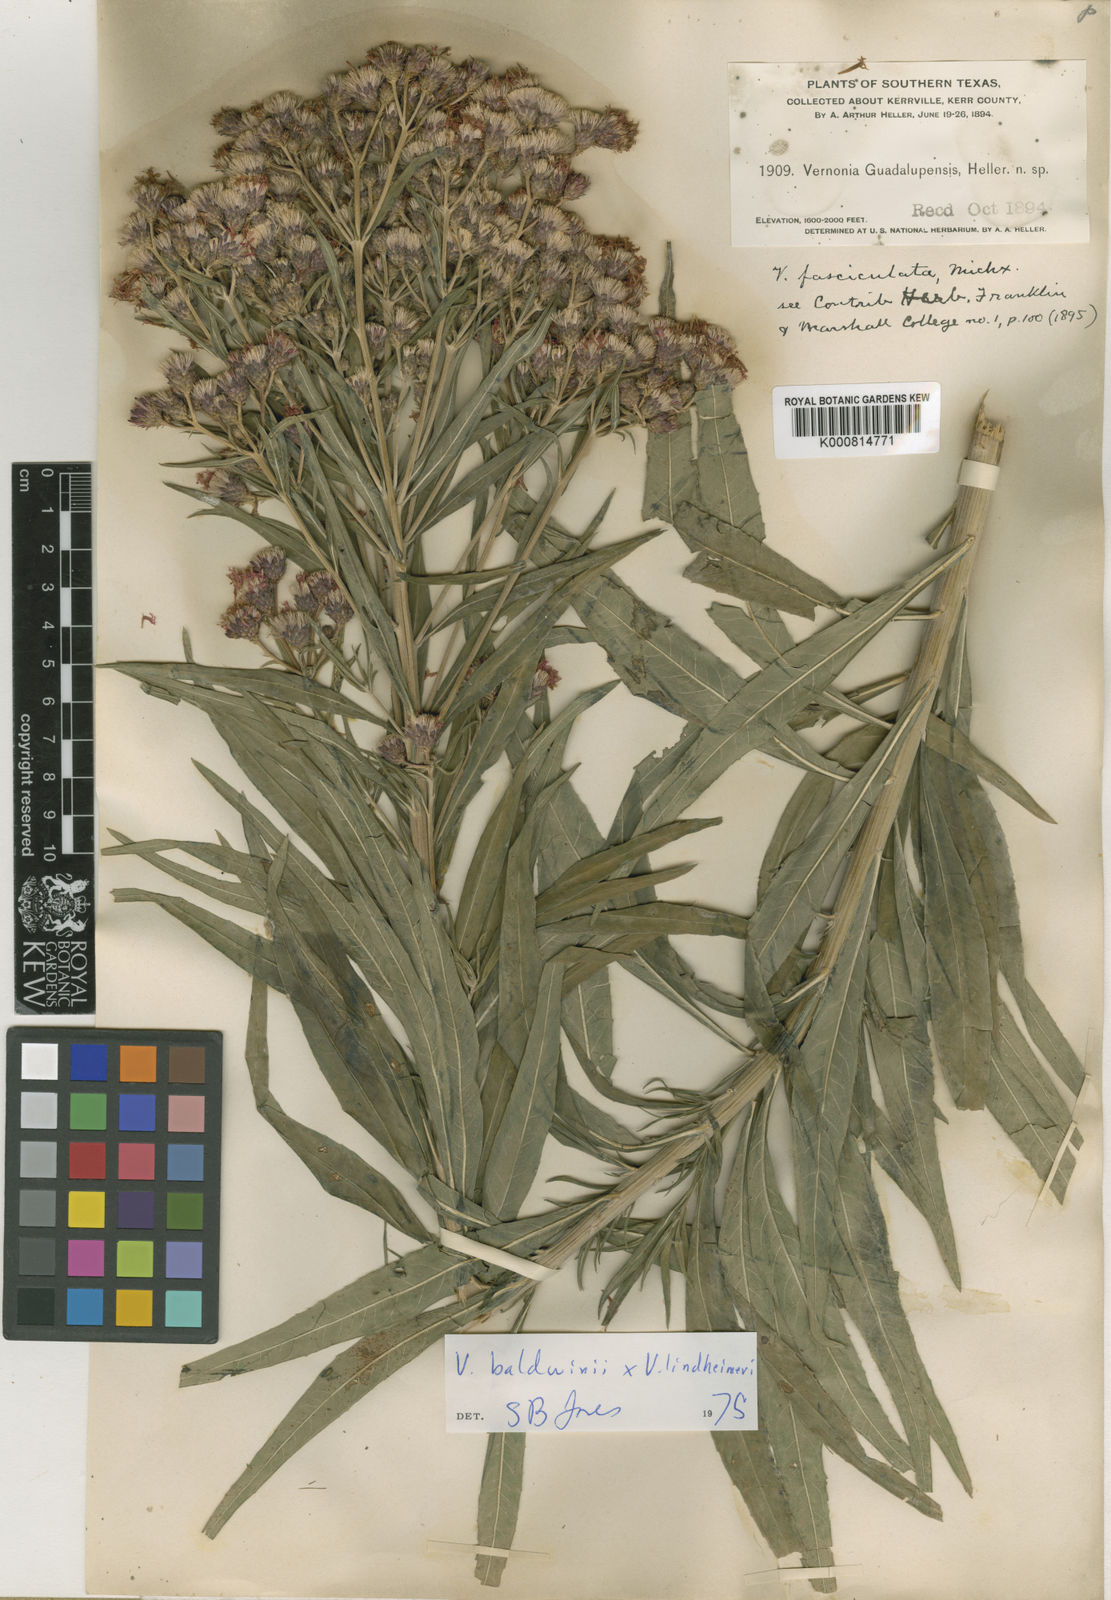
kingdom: Plantae
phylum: Tracheophyta
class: Magnoliopsida
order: Asterales
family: Asteraceae
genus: Vernonia
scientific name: Vernonia guadalupensis
